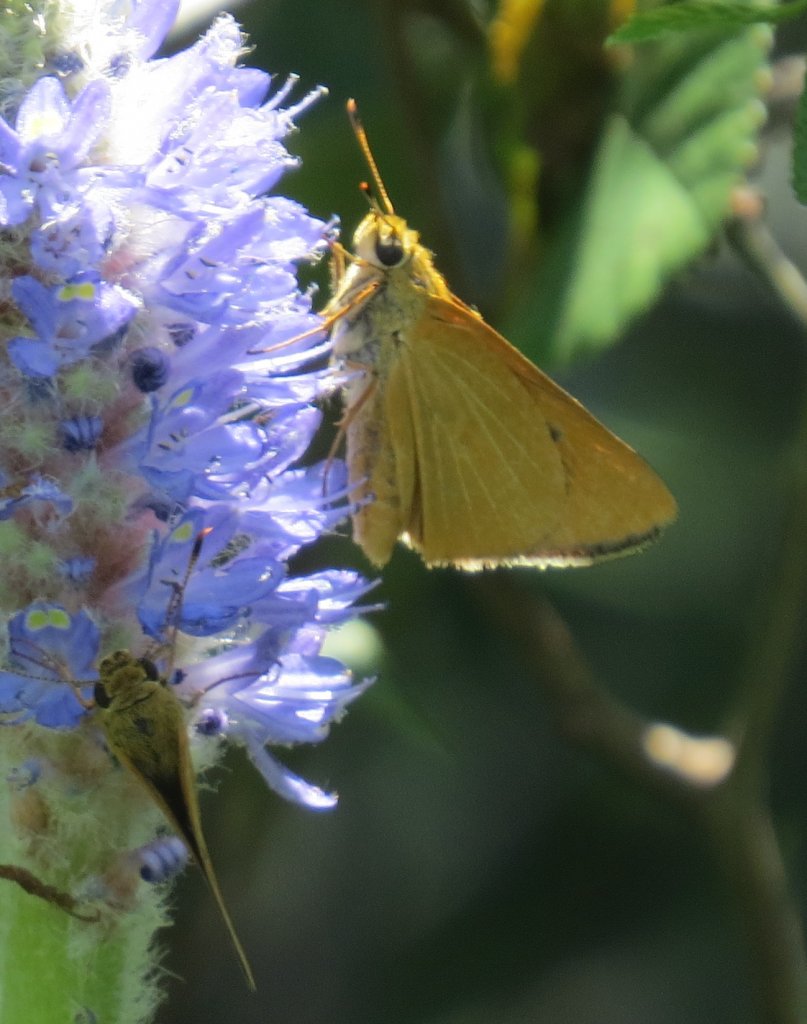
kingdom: Animalia
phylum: Arthropoda
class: Insecta
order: Lepidoptera
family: Hesperiidae
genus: Problema
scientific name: Problema bulenta
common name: Rare Skipper
